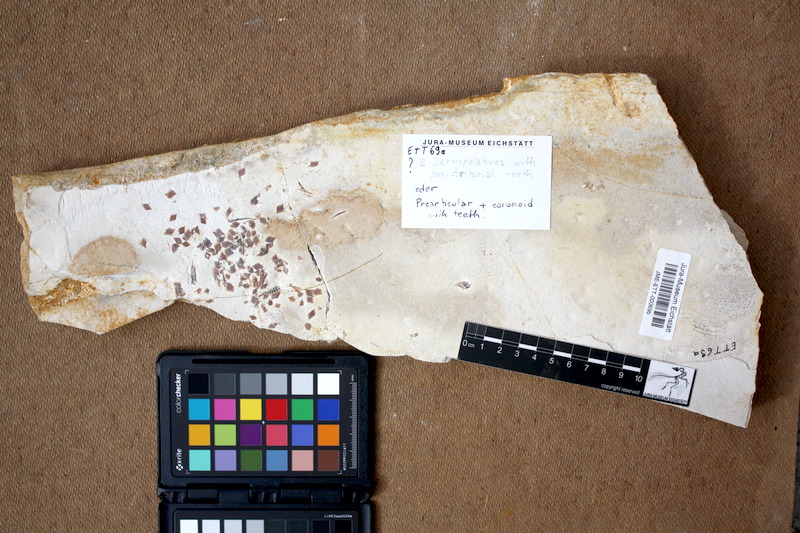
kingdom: Animalia
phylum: Chordata
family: Callipurbeckiidae
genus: Macrosemimimus
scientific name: Macrosemimimus fegerti
